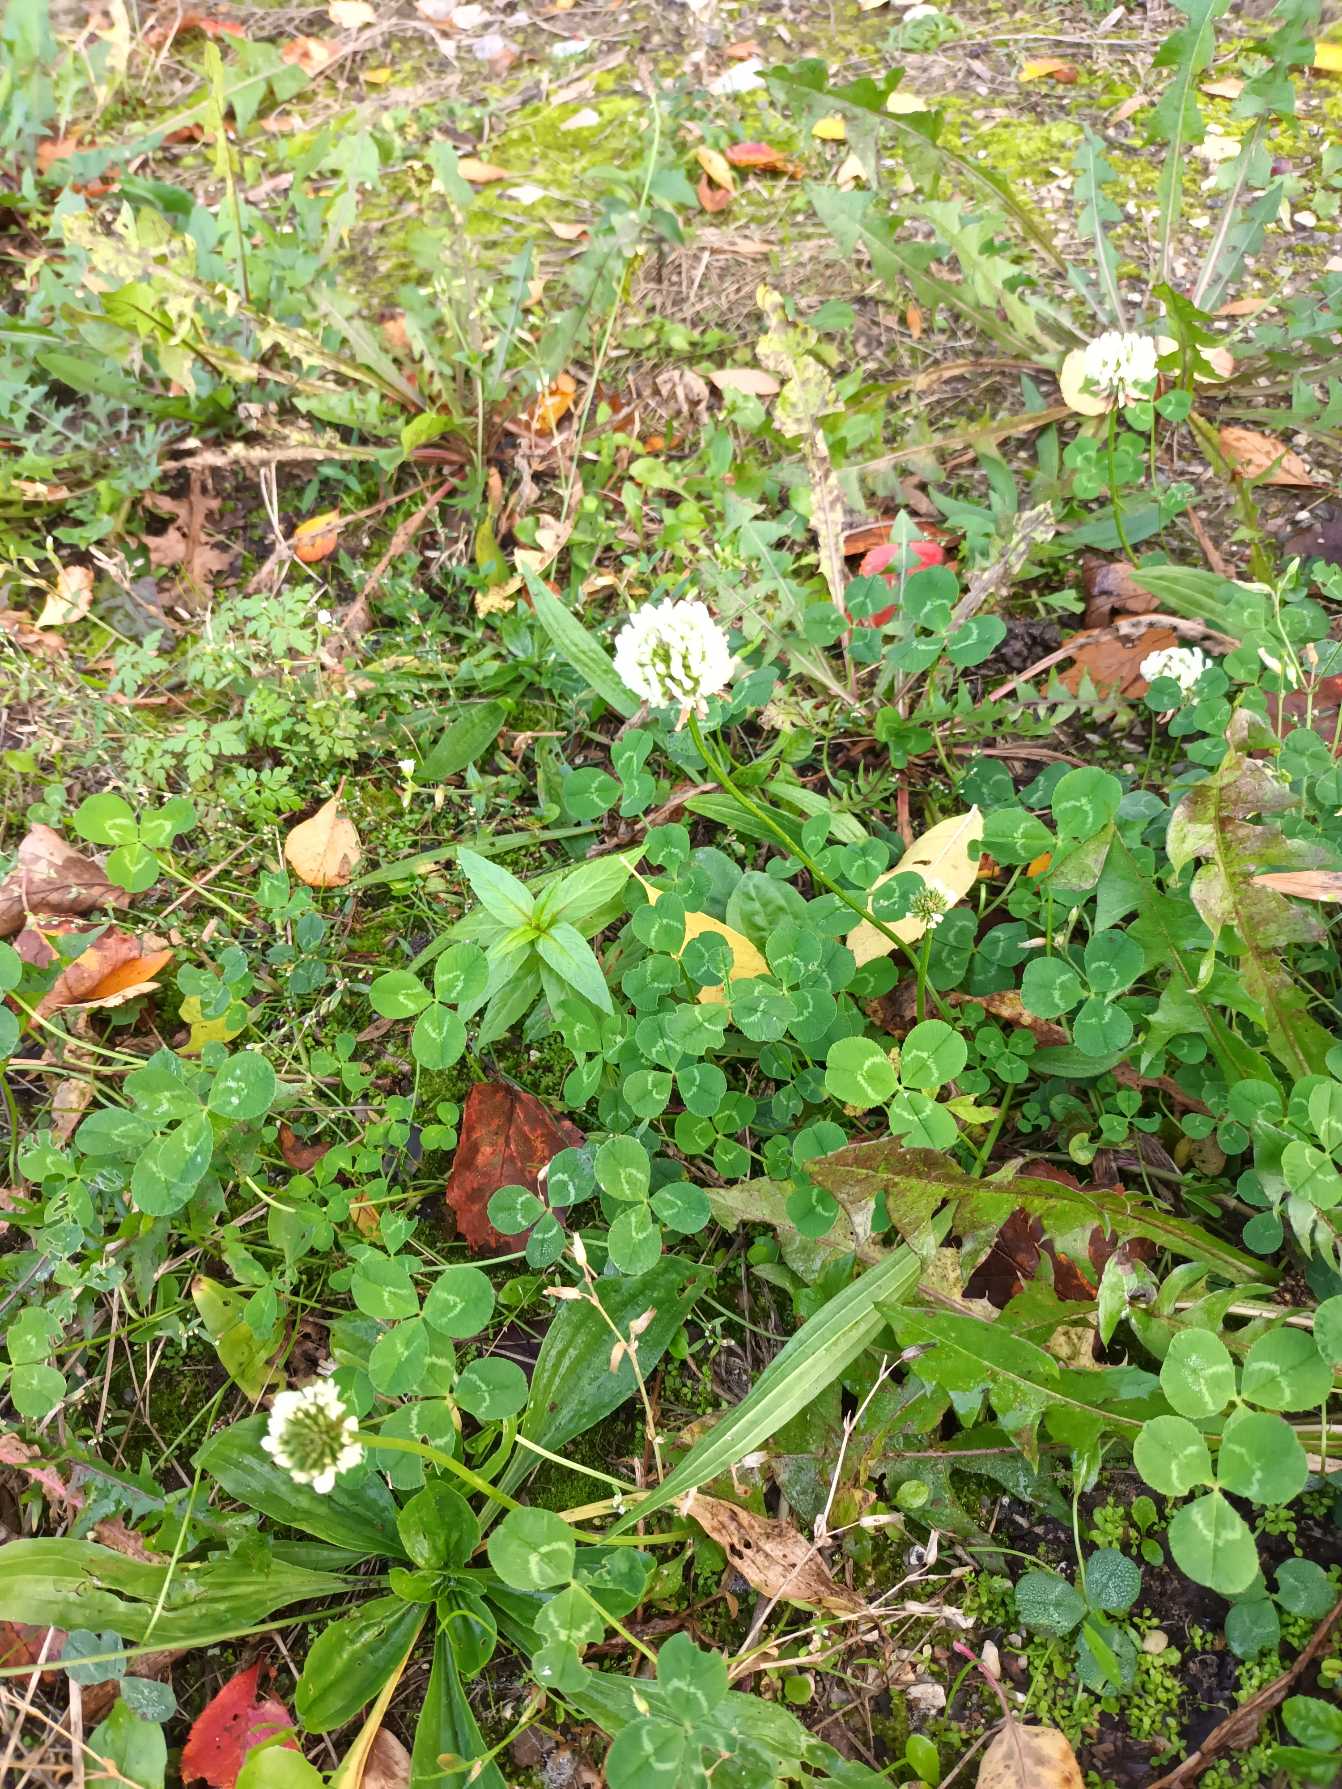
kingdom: Plantae
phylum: Tracheophyta
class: Magnoliopsida
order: Fabales
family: Fabaceae
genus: Trifolium
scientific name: Trifolium repens
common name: Hvid-kløver
